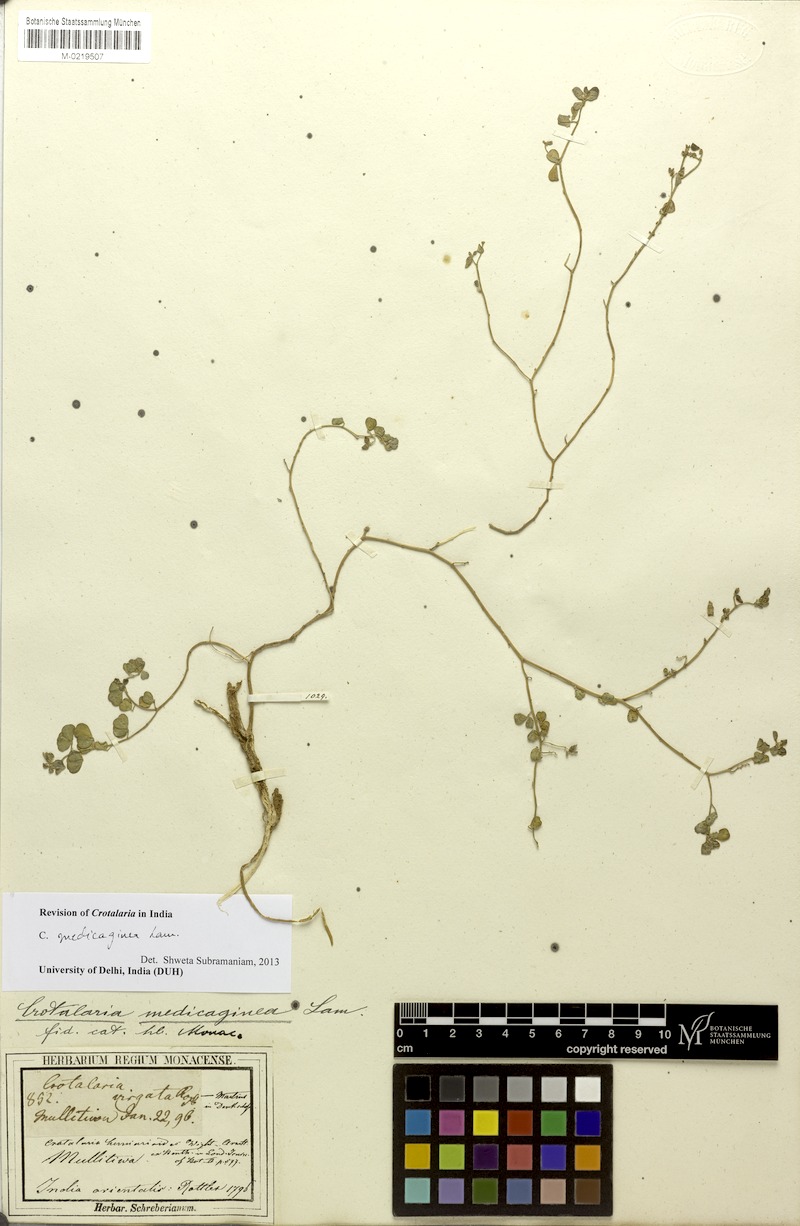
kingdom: Plantae
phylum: Tracheophyta
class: Magnoliopsida
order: Fabales
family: Fabaceae
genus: Crotalaria
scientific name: Crotalaria medicaginea
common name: Trefoil rattlepod
